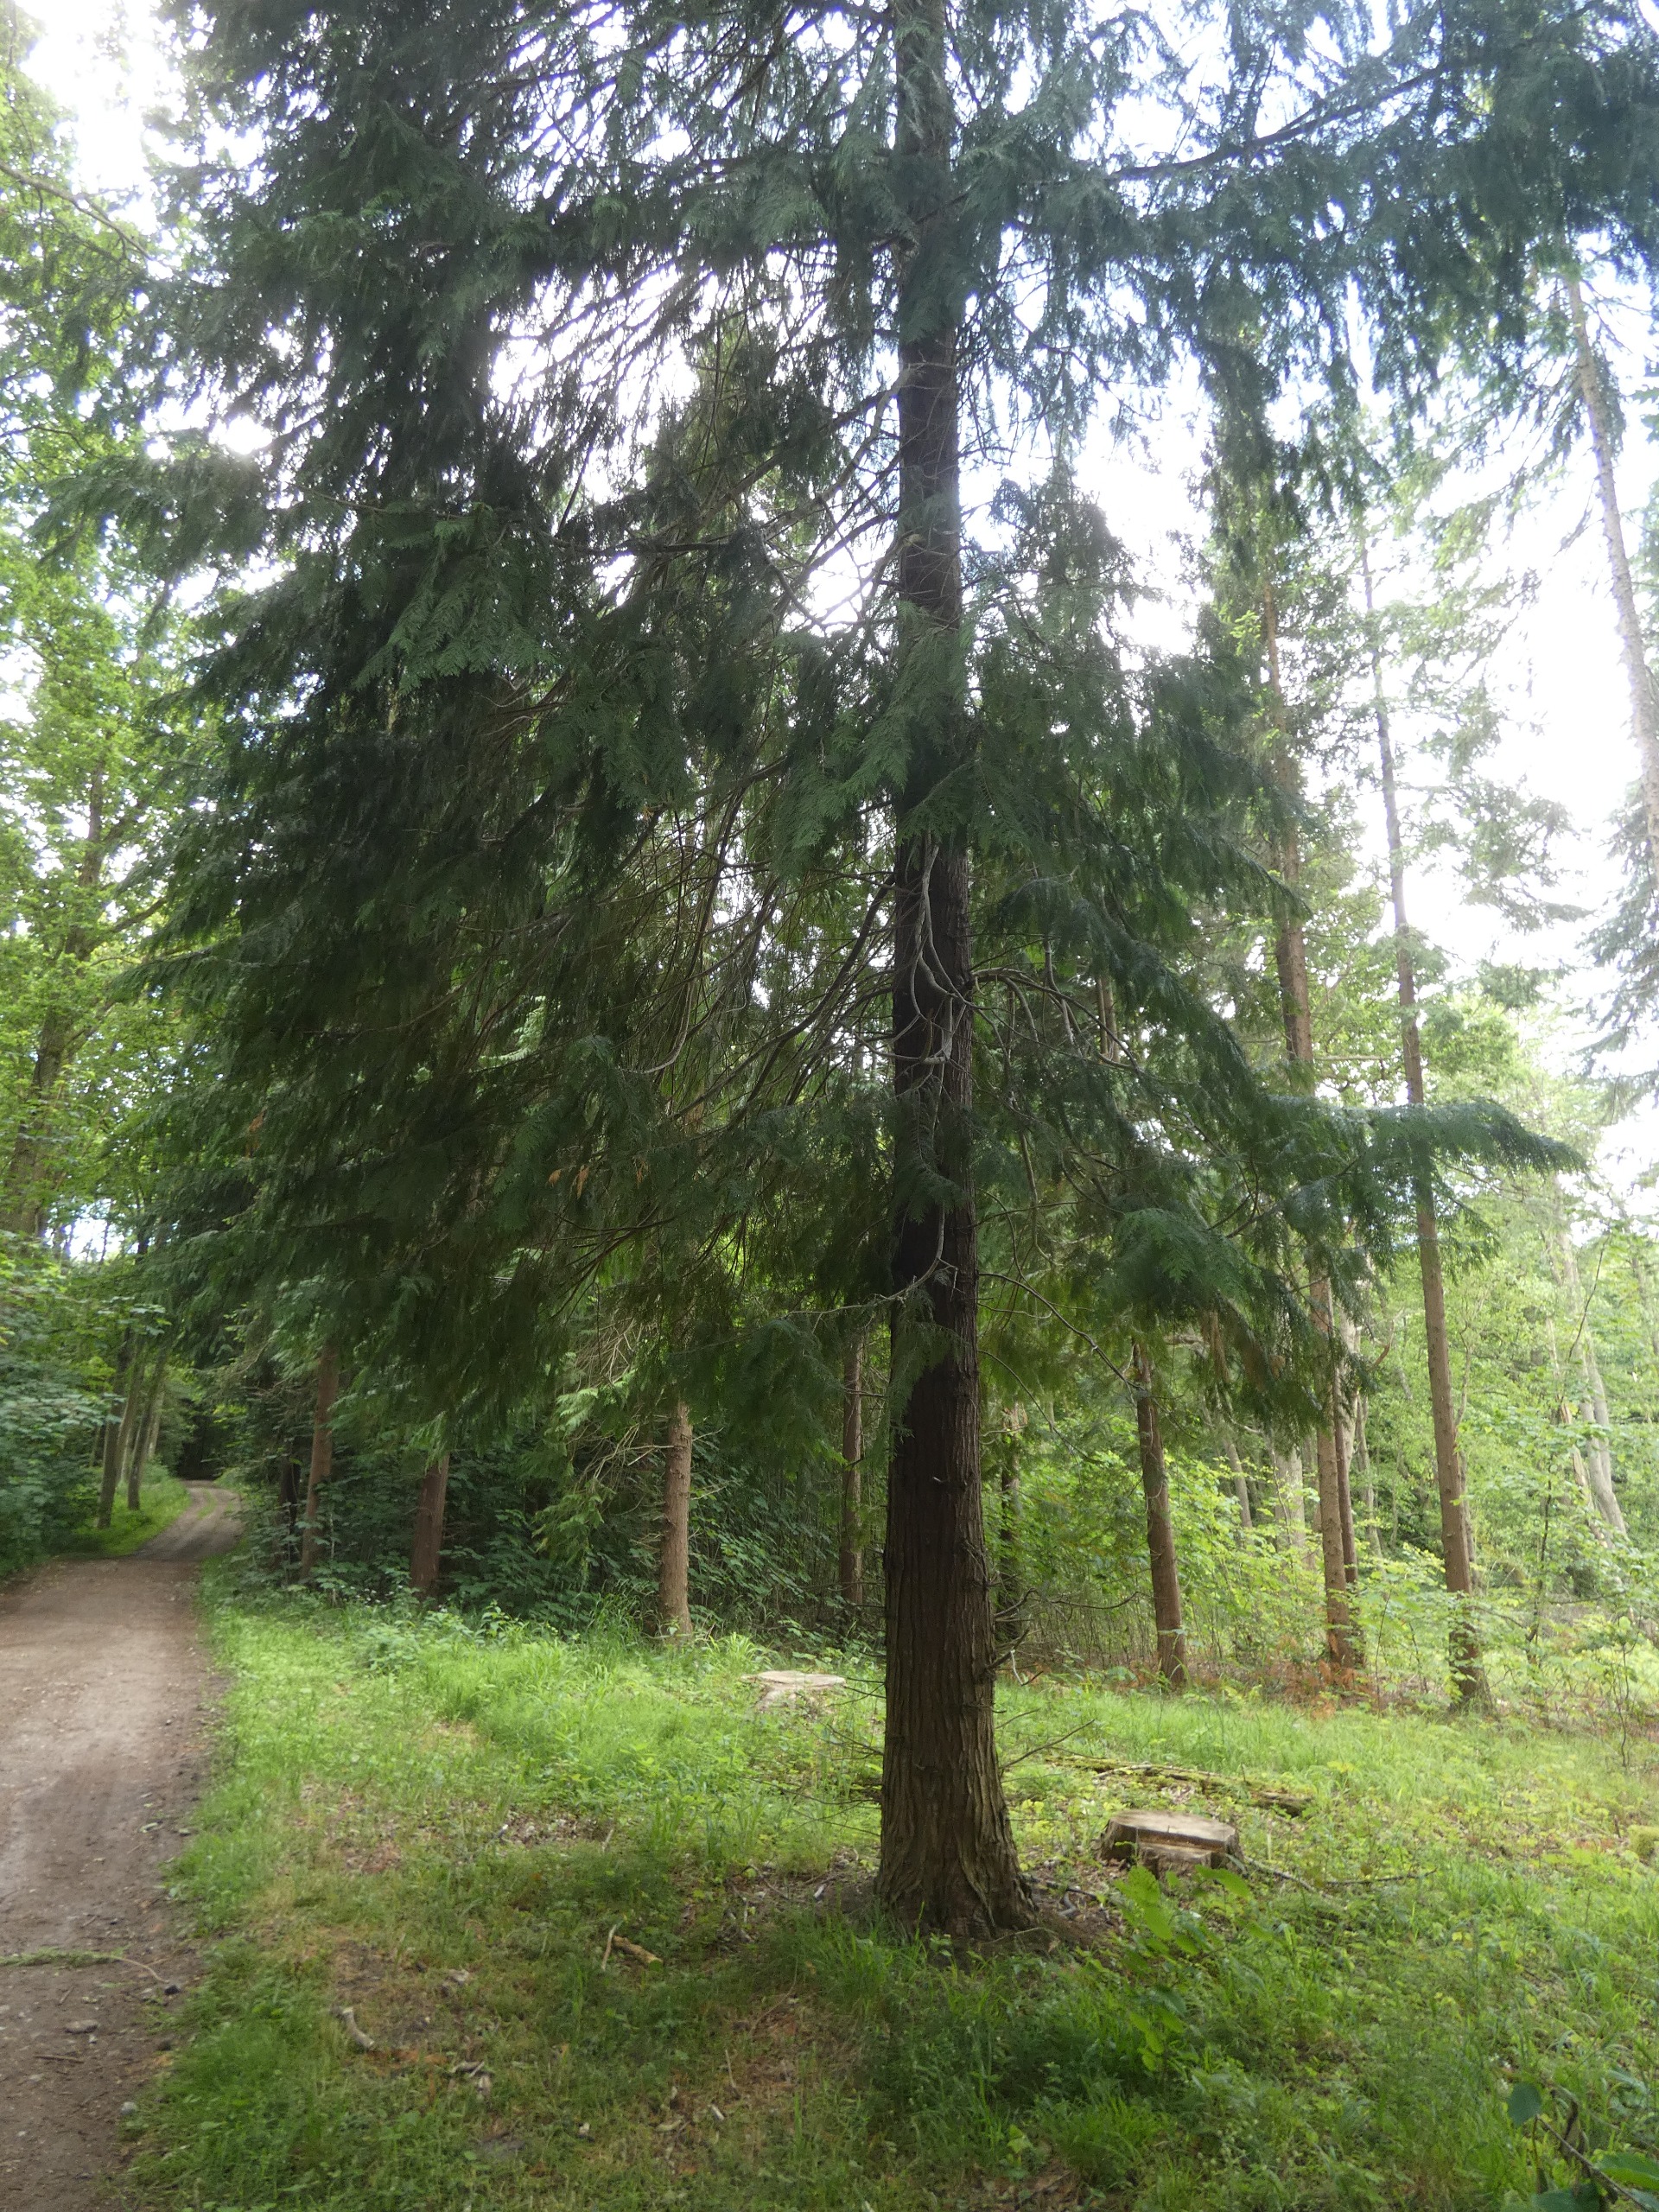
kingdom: Plantae
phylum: Tracheophyta
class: Pinopsida
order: Pinales
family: Cupressaceae
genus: Thuja
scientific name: Thuja occidentalis
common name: Almindelig thuja
